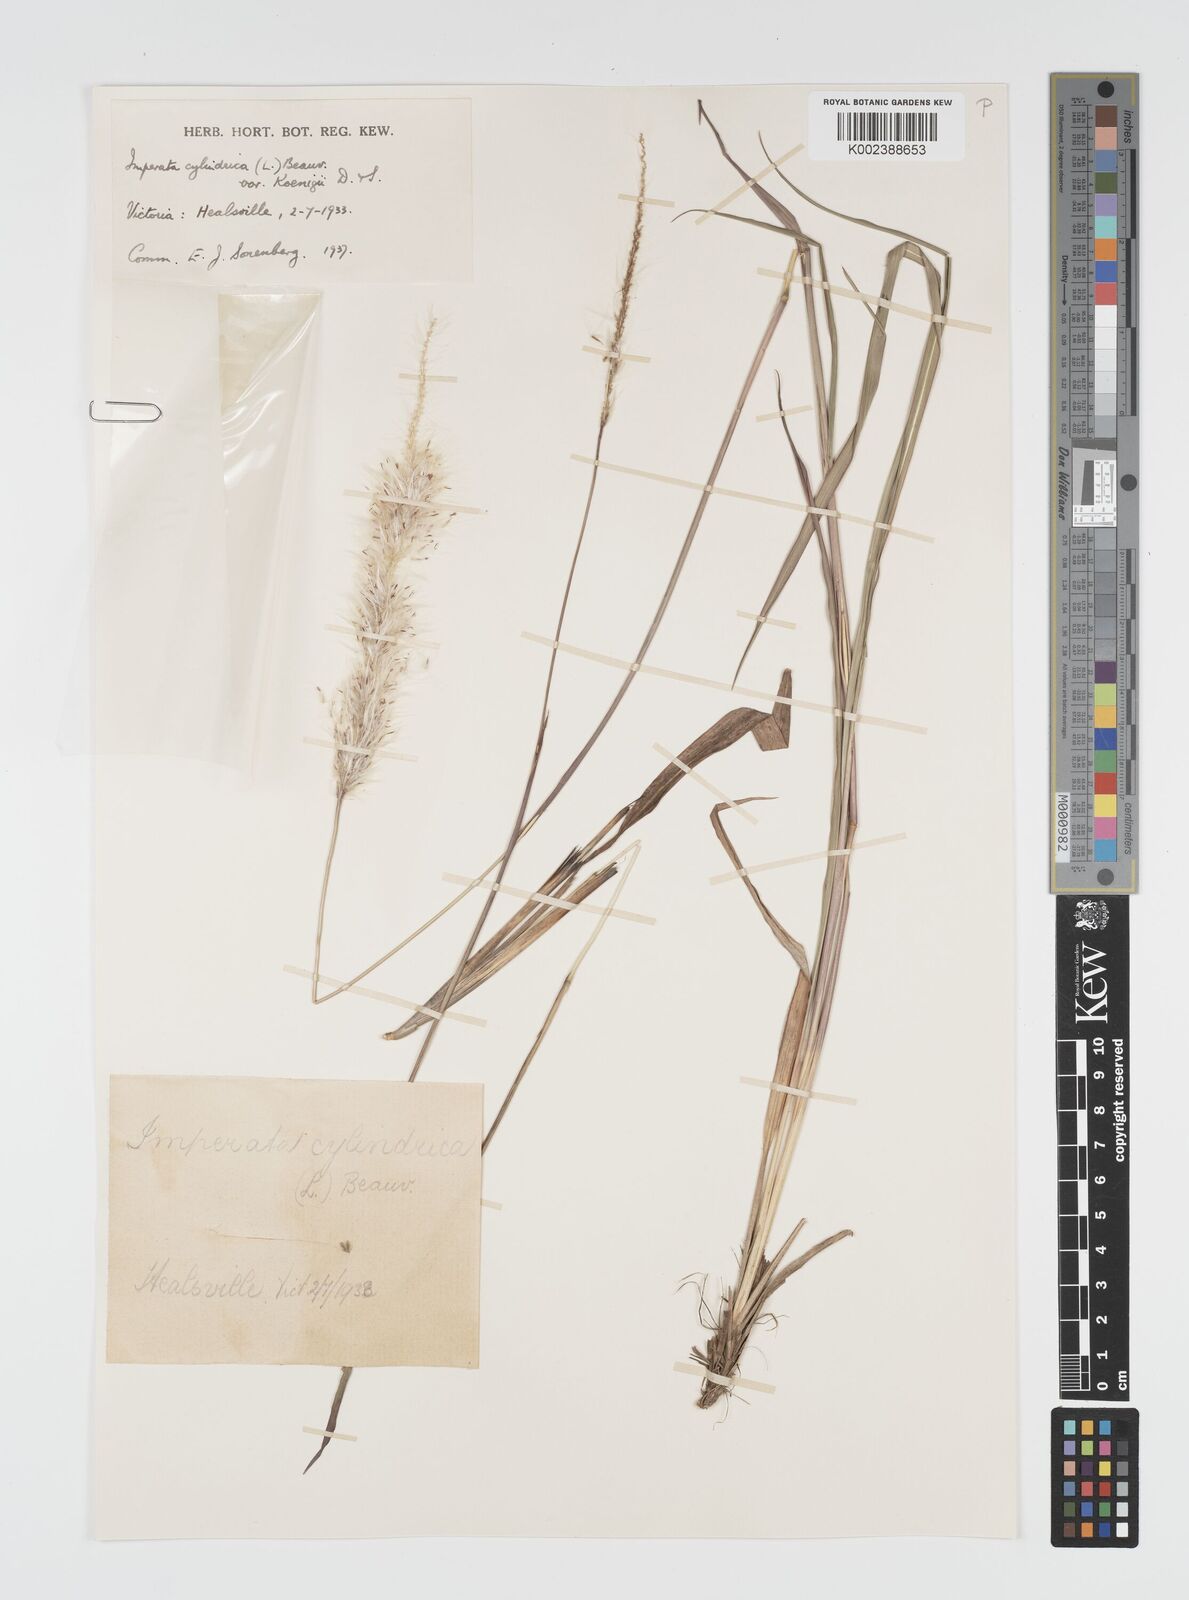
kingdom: Plantae
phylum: Tracheophyta
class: Liliopsida
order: Poales
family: Poaceae
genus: Imperata
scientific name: Imperata cylindrica
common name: Cogongrass
